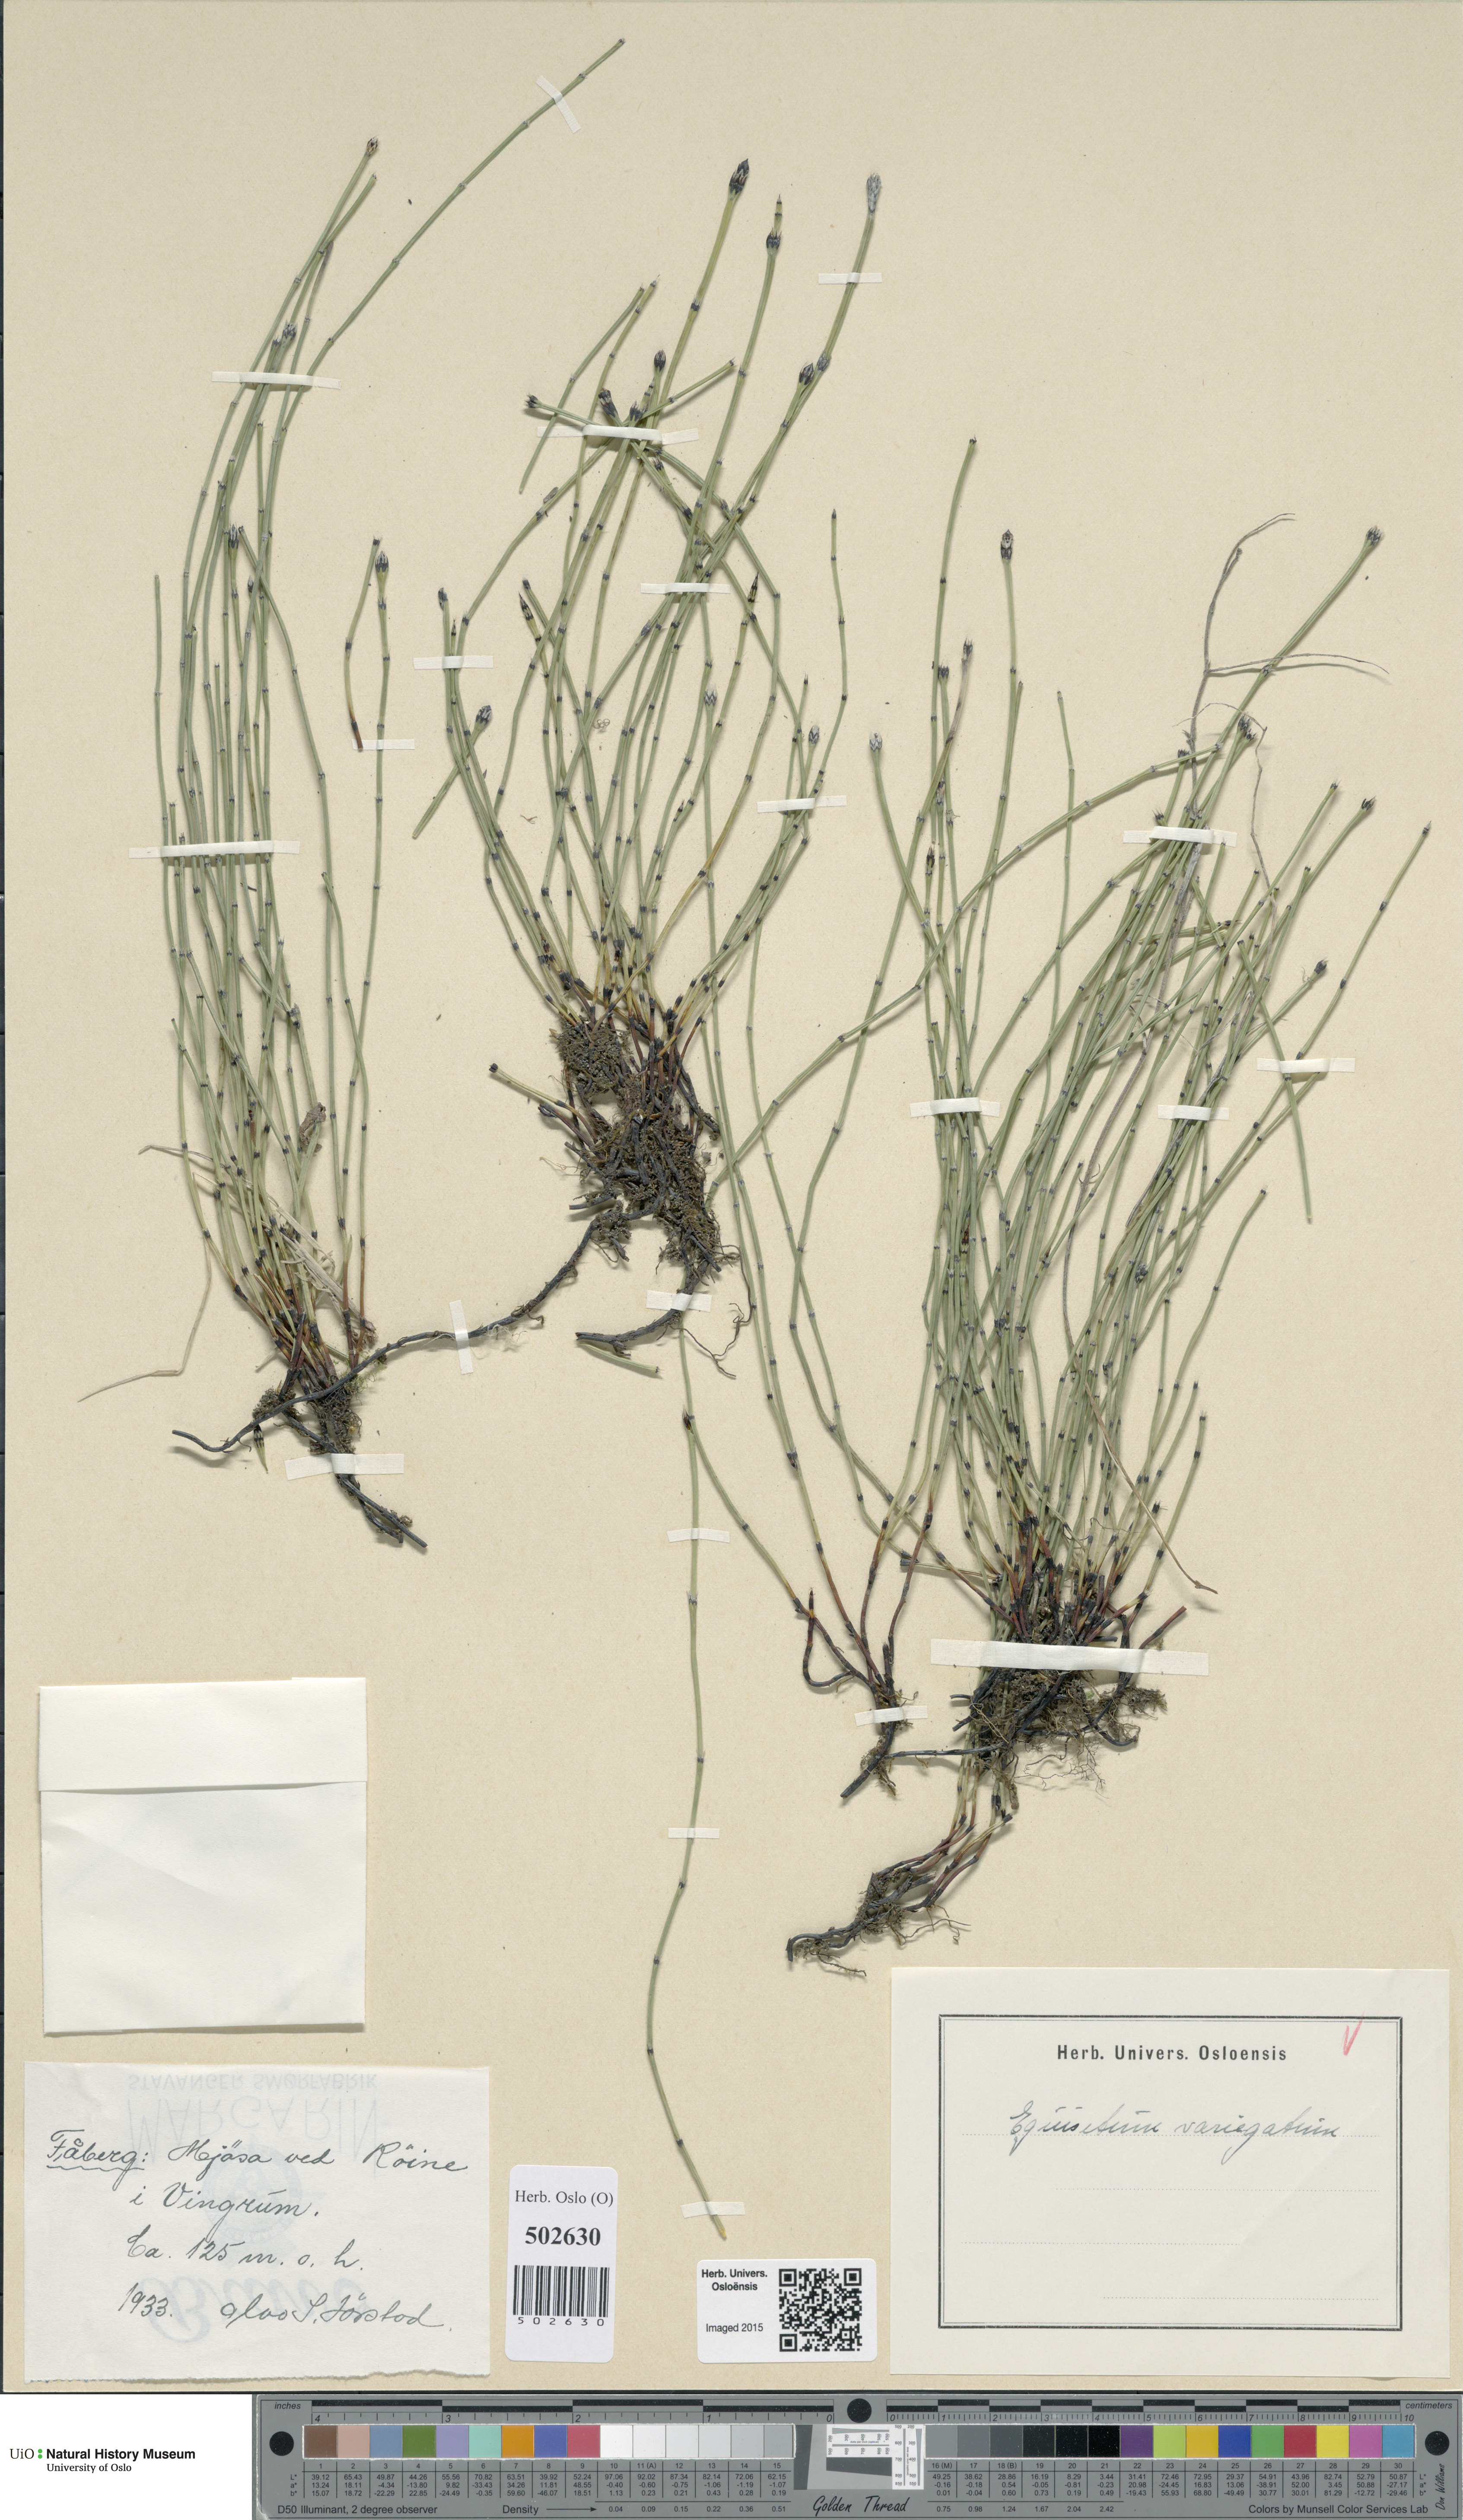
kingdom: Plantae
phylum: Tracheophyta
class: Polypodiopsida
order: Equisetales
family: Equisetaceae
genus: Equisetum
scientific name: Equisetum variegatum
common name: Variegated horsetail
